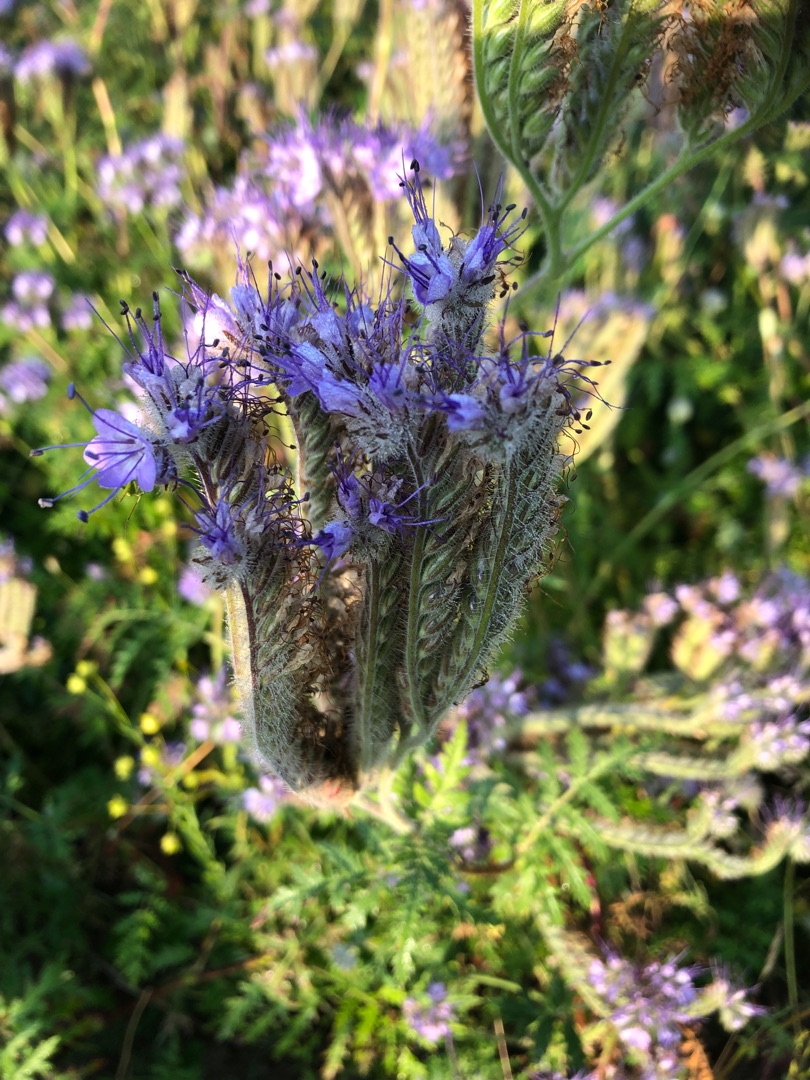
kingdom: Plantae
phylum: Tracheophyta
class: Magnoliopsida
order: Boraginales
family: Hydrophyllaceae
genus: Phacelia
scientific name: Phacelia tanacetifolia
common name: Honningurt
